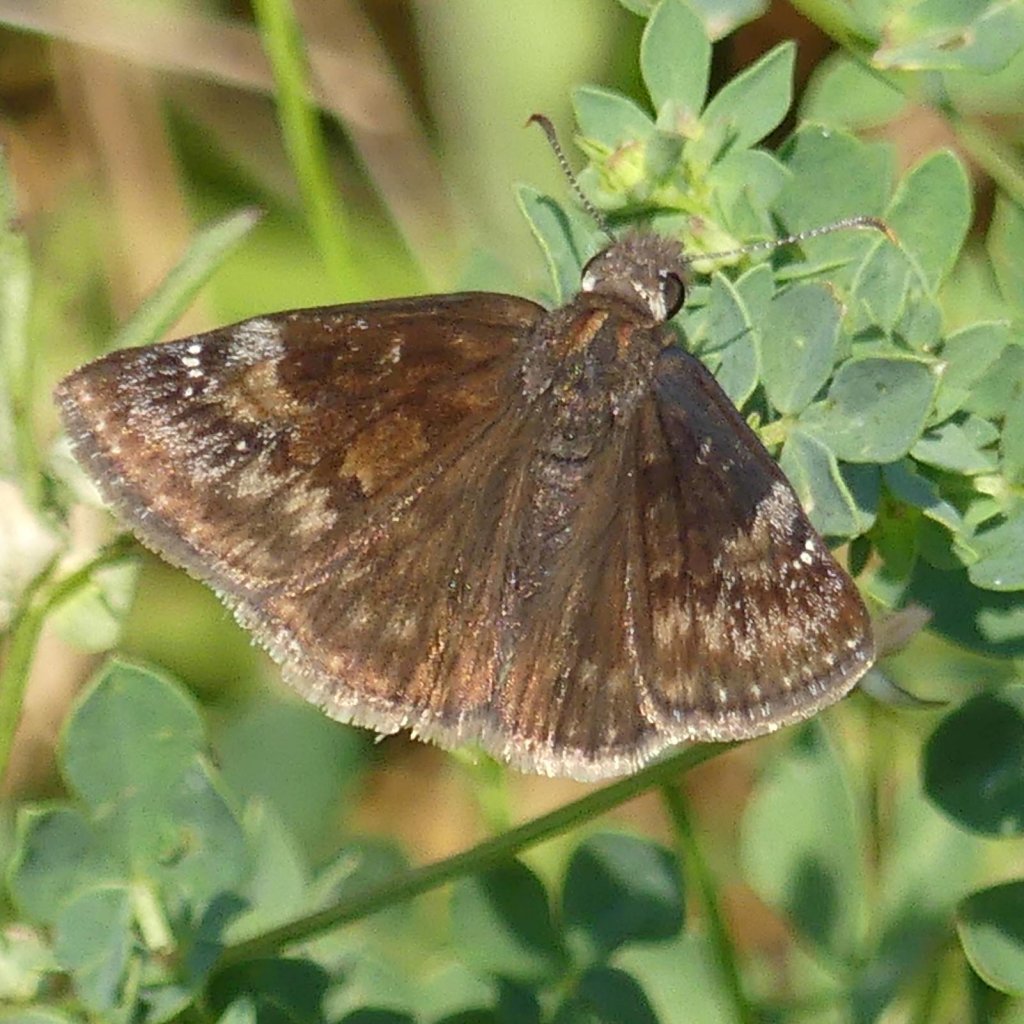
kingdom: Animalia
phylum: Arthropoda
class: Insecta
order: Lepidoptera
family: Hesperiidae
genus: Gesta
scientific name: Gesta
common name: Wild Indigo Duskywing
